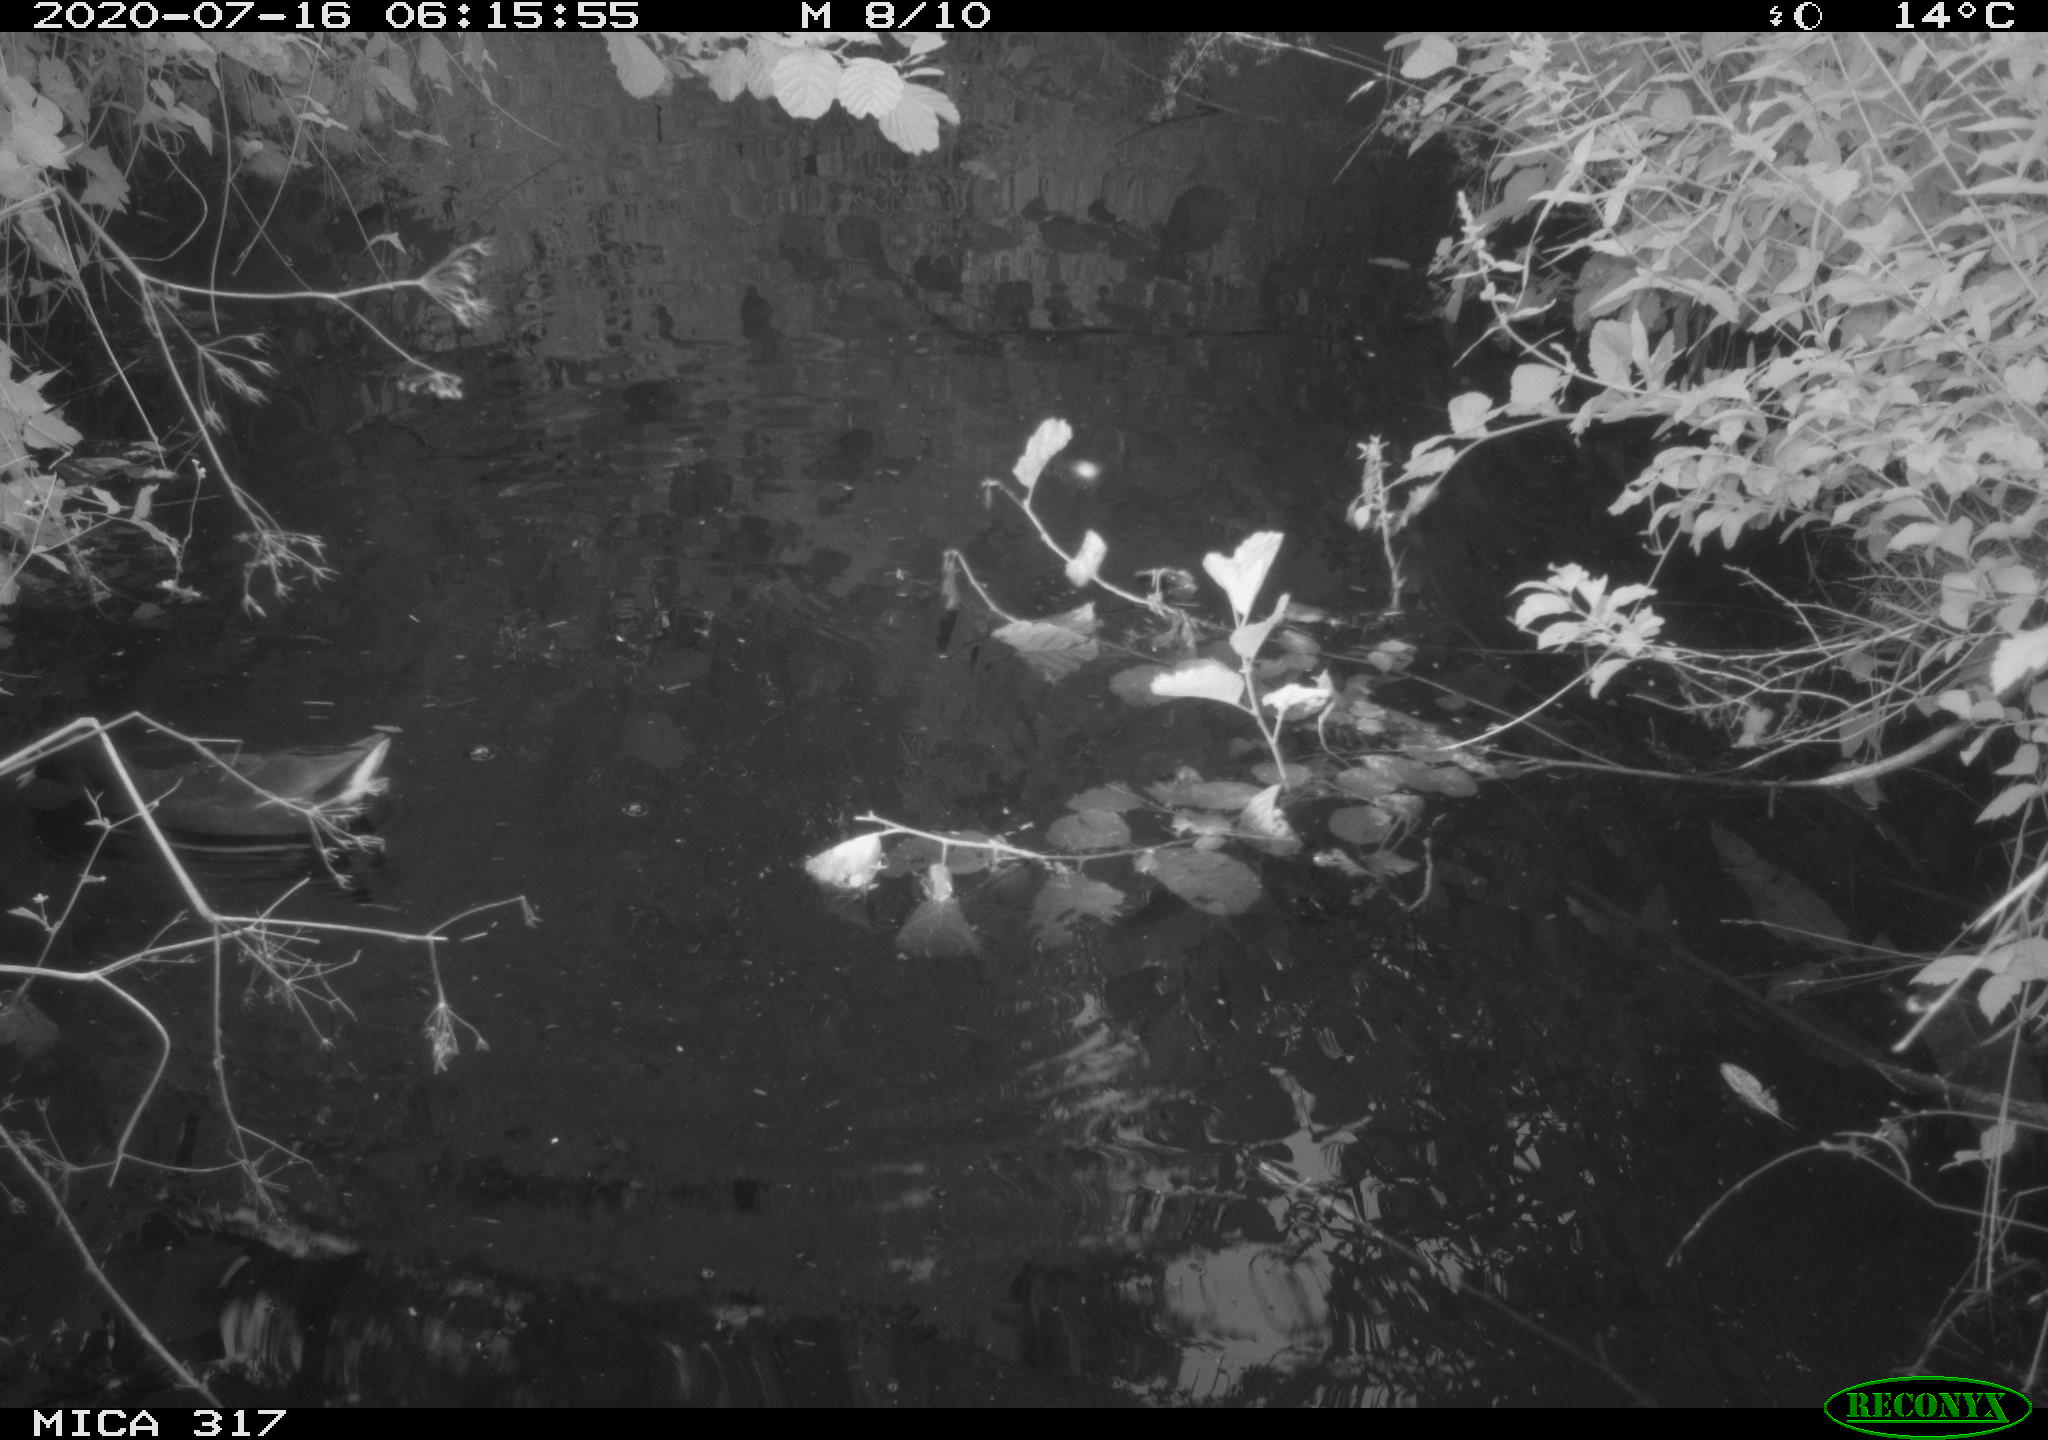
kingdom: Animalia
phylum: Chordata
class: Aves
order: Gruiformes
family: Rallidae
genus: Gallinula
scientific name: Gallinula chloropus
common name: Common moorhen
